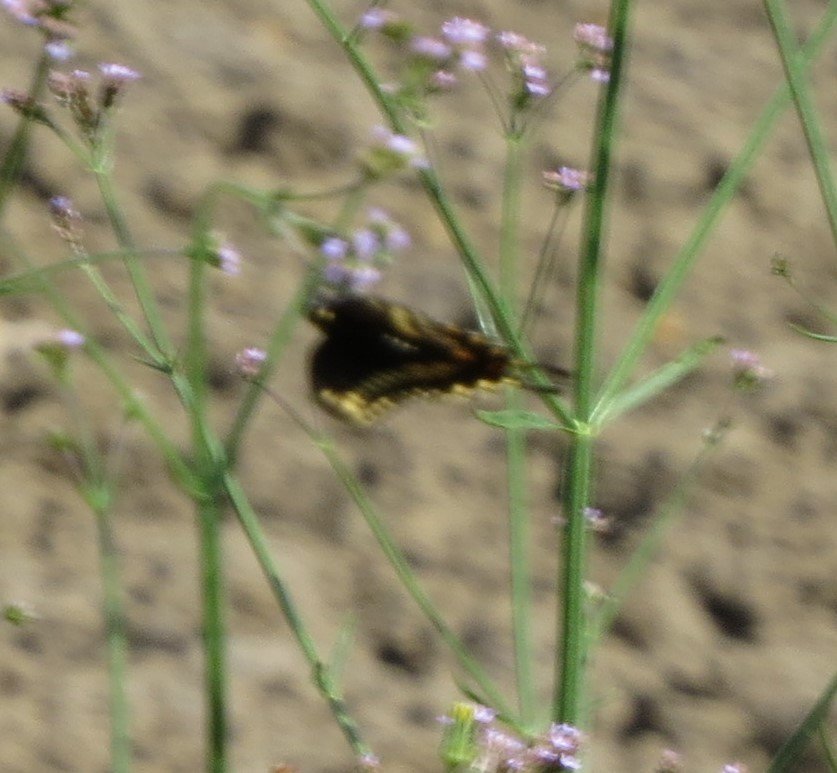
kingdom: Animalia
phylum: Arthropoda
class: Insecta
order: Lepidoptera
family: Papilionidae
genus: Papilio
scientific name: Papilio polyxenes
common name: Black Swallowtail
